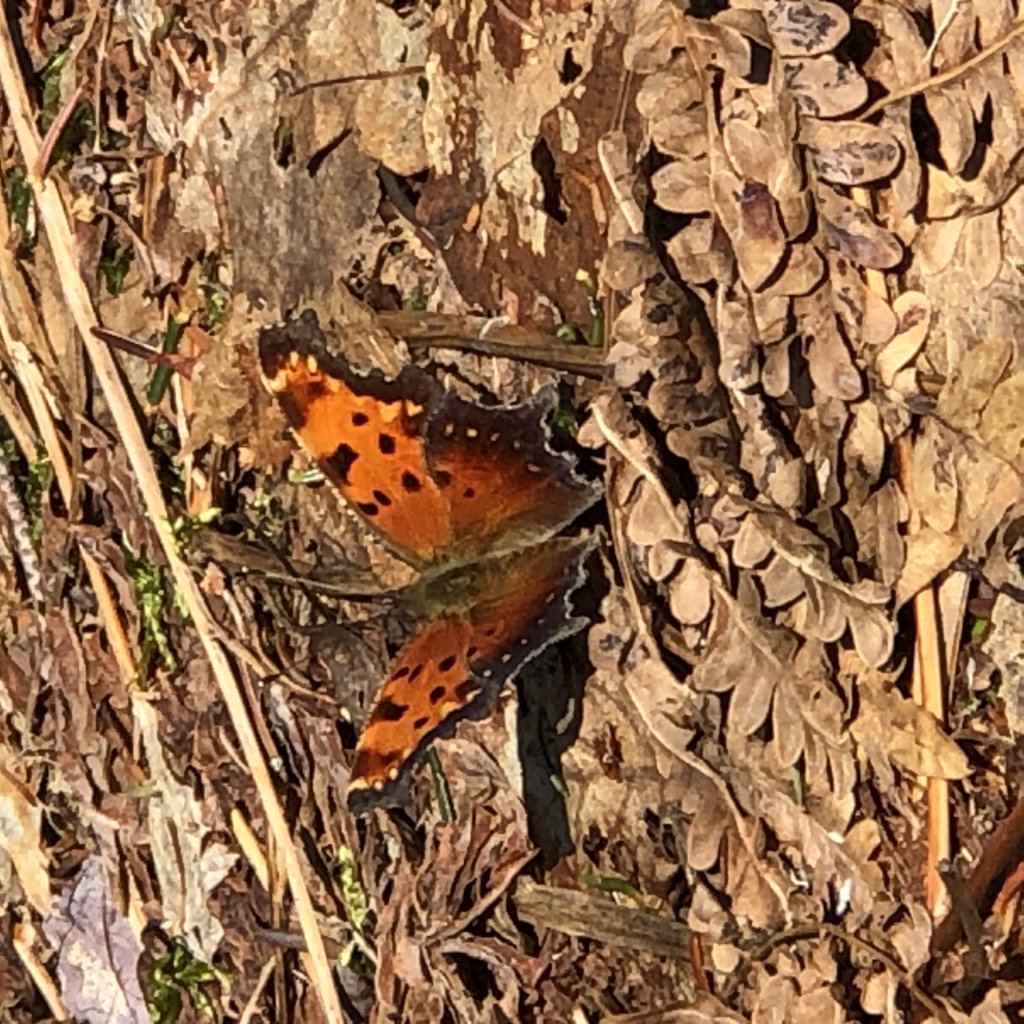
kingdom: Animalia
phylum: Arthropoda
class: Insecta
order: Lepidoptera
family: Nymphalidae
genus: Polygonia
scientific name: Polygonia progne
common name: Gray Comma
